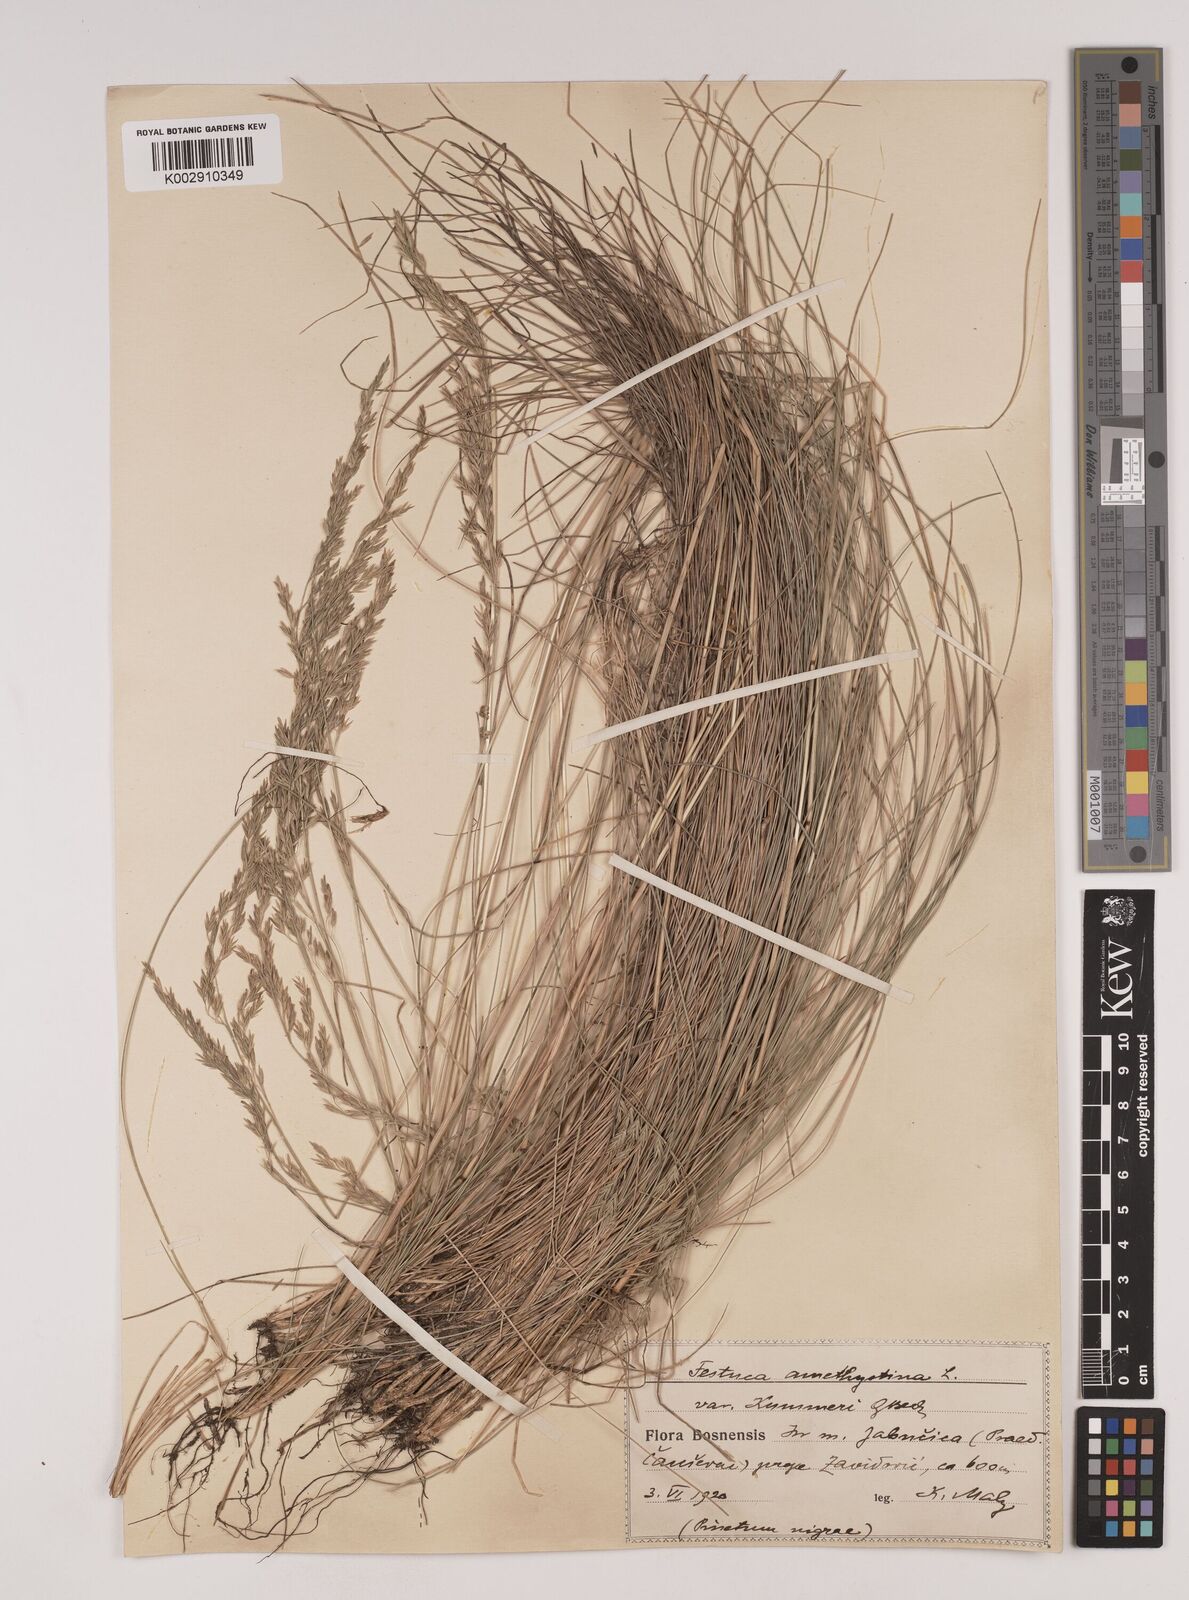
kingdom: Plantae
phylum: Tracheophyta
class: Liliopsida
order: Poales
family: Poaceae
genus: Festuca
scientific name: Festuca amethystina
